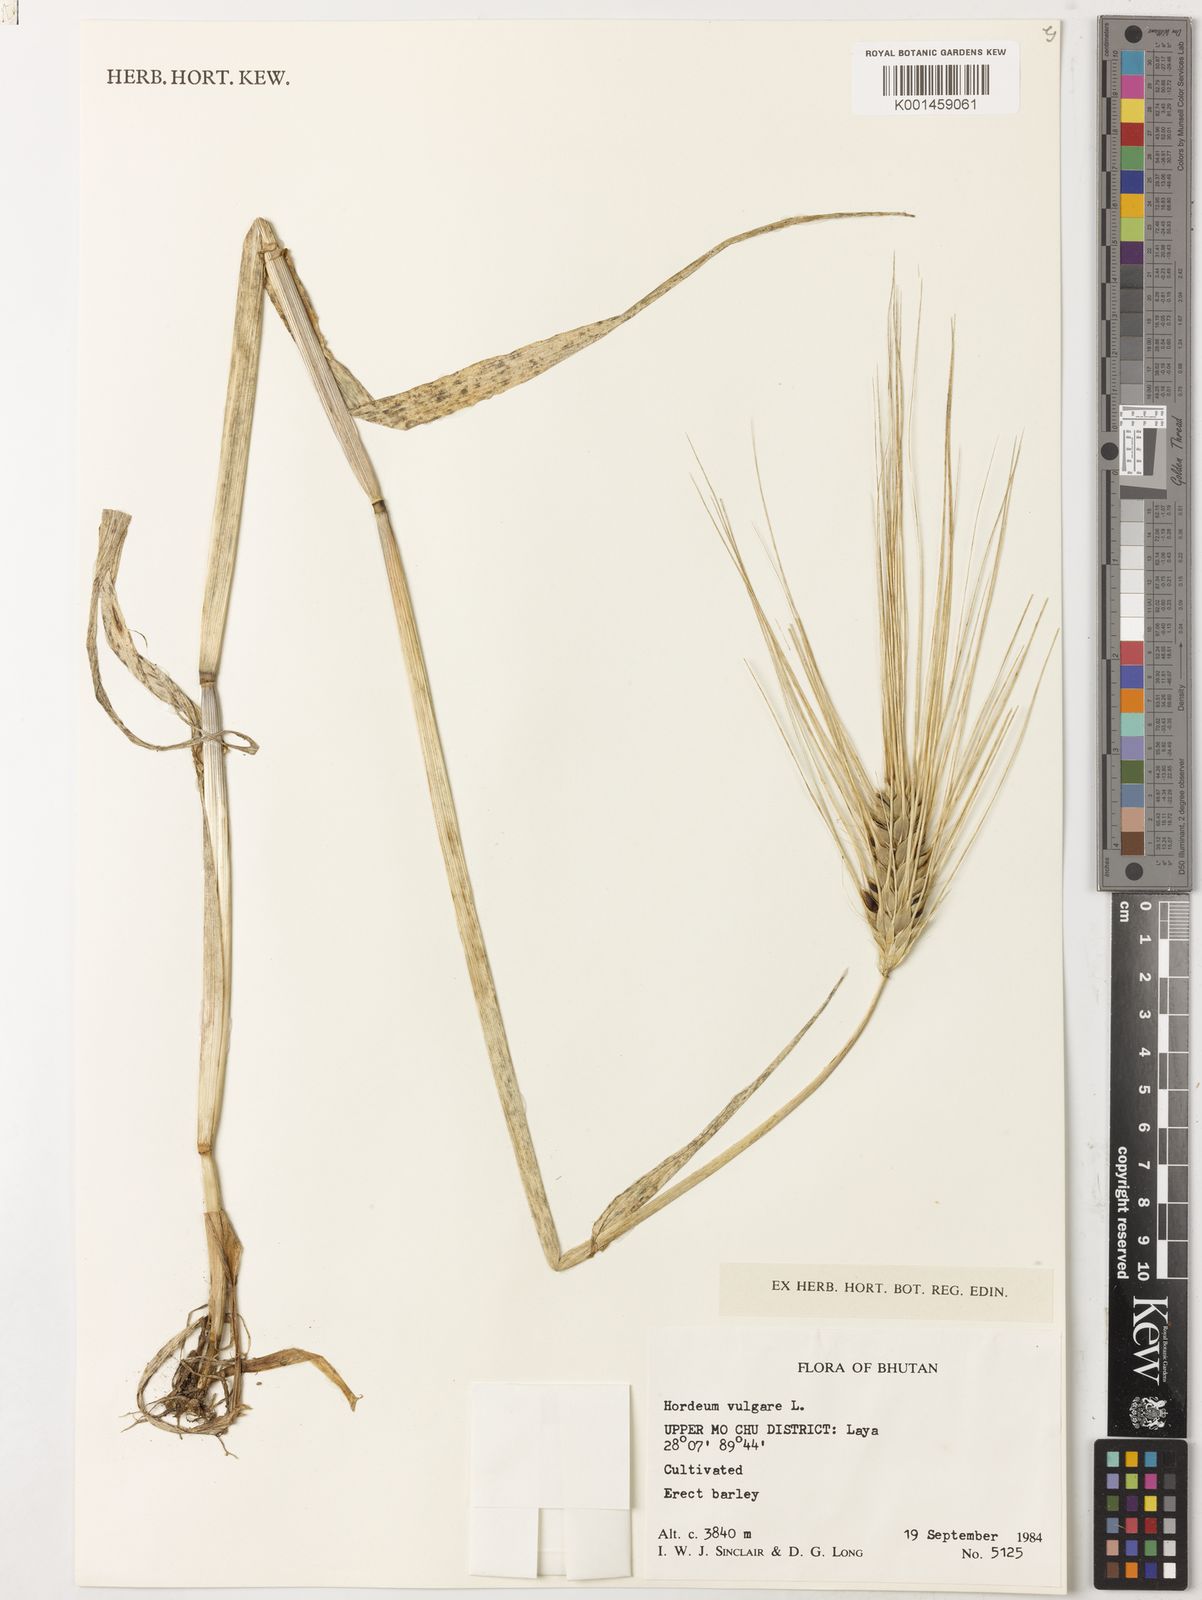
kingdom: Plantae
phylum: Tracheophyta
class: Liliopsida
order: Poales
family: Poaceae
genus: Hordeum
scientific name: Hordeum vulgare
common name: Common barley
